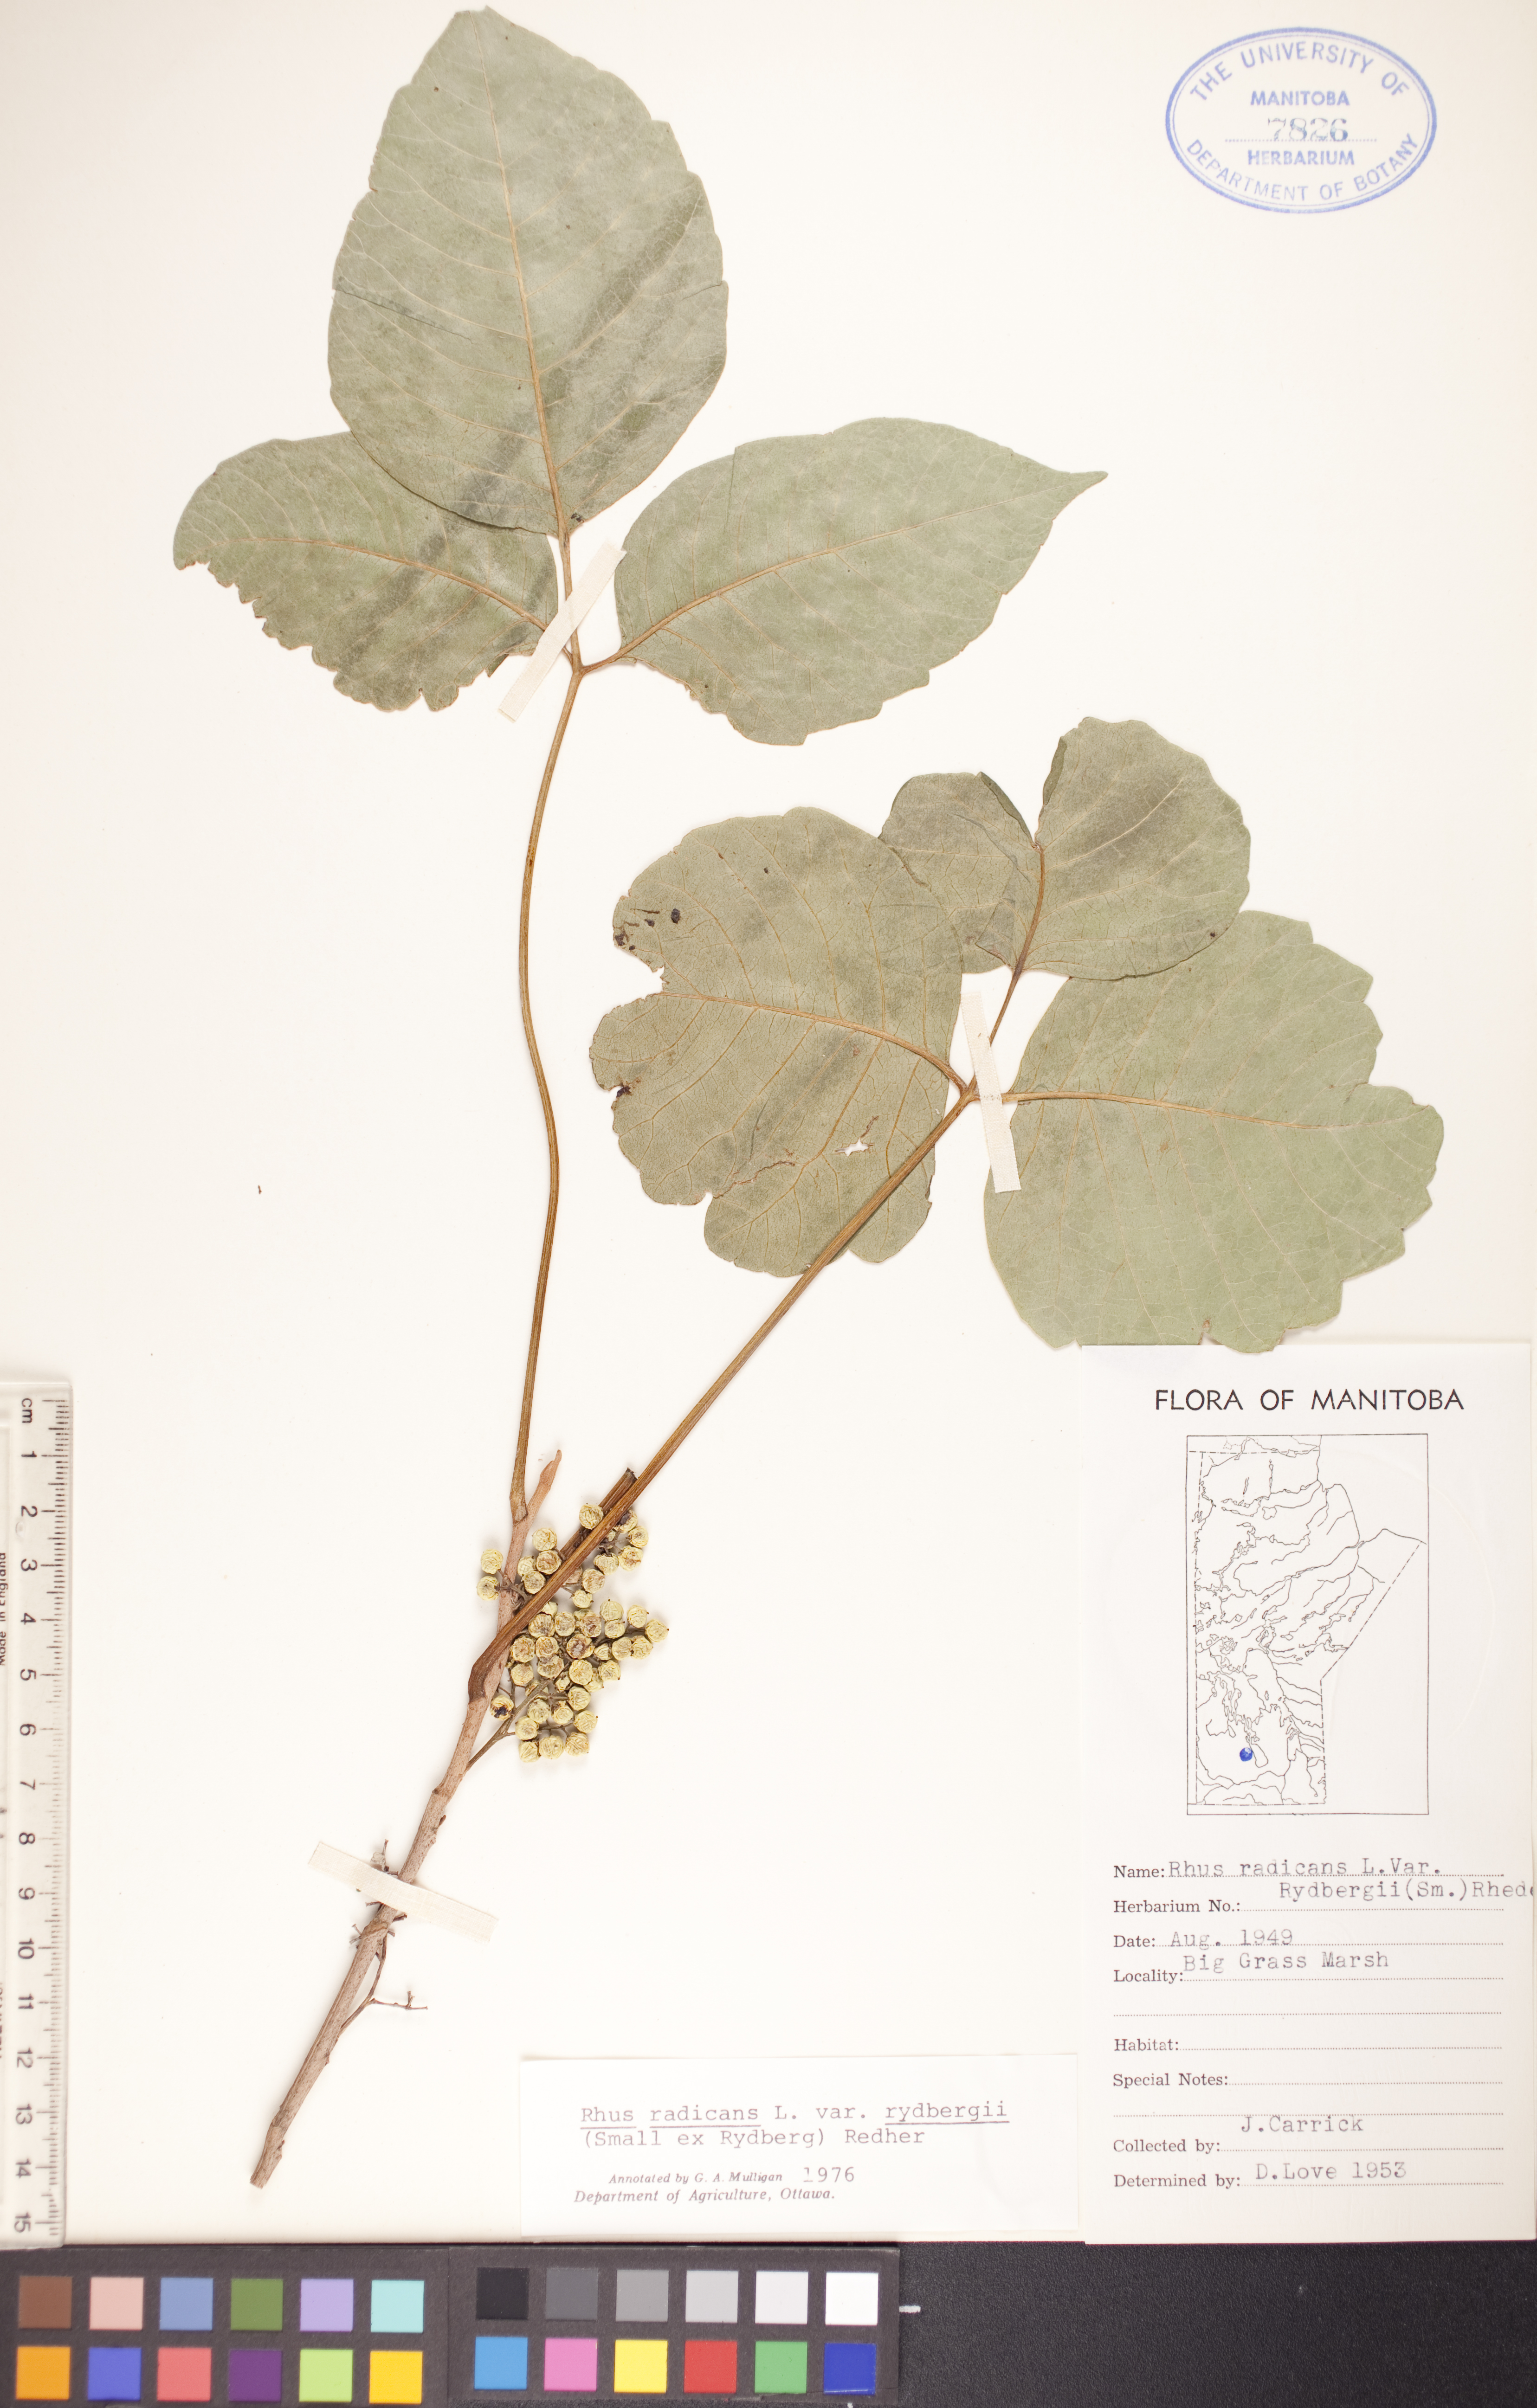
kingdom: Plantae
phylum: Tracheophyta
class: Magnoliopsida
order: Sapindales
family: Anacardiaceae
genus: Toxicodendron
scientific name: Toxicodendron rydbergii
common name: Rydberg's poison-ivy
